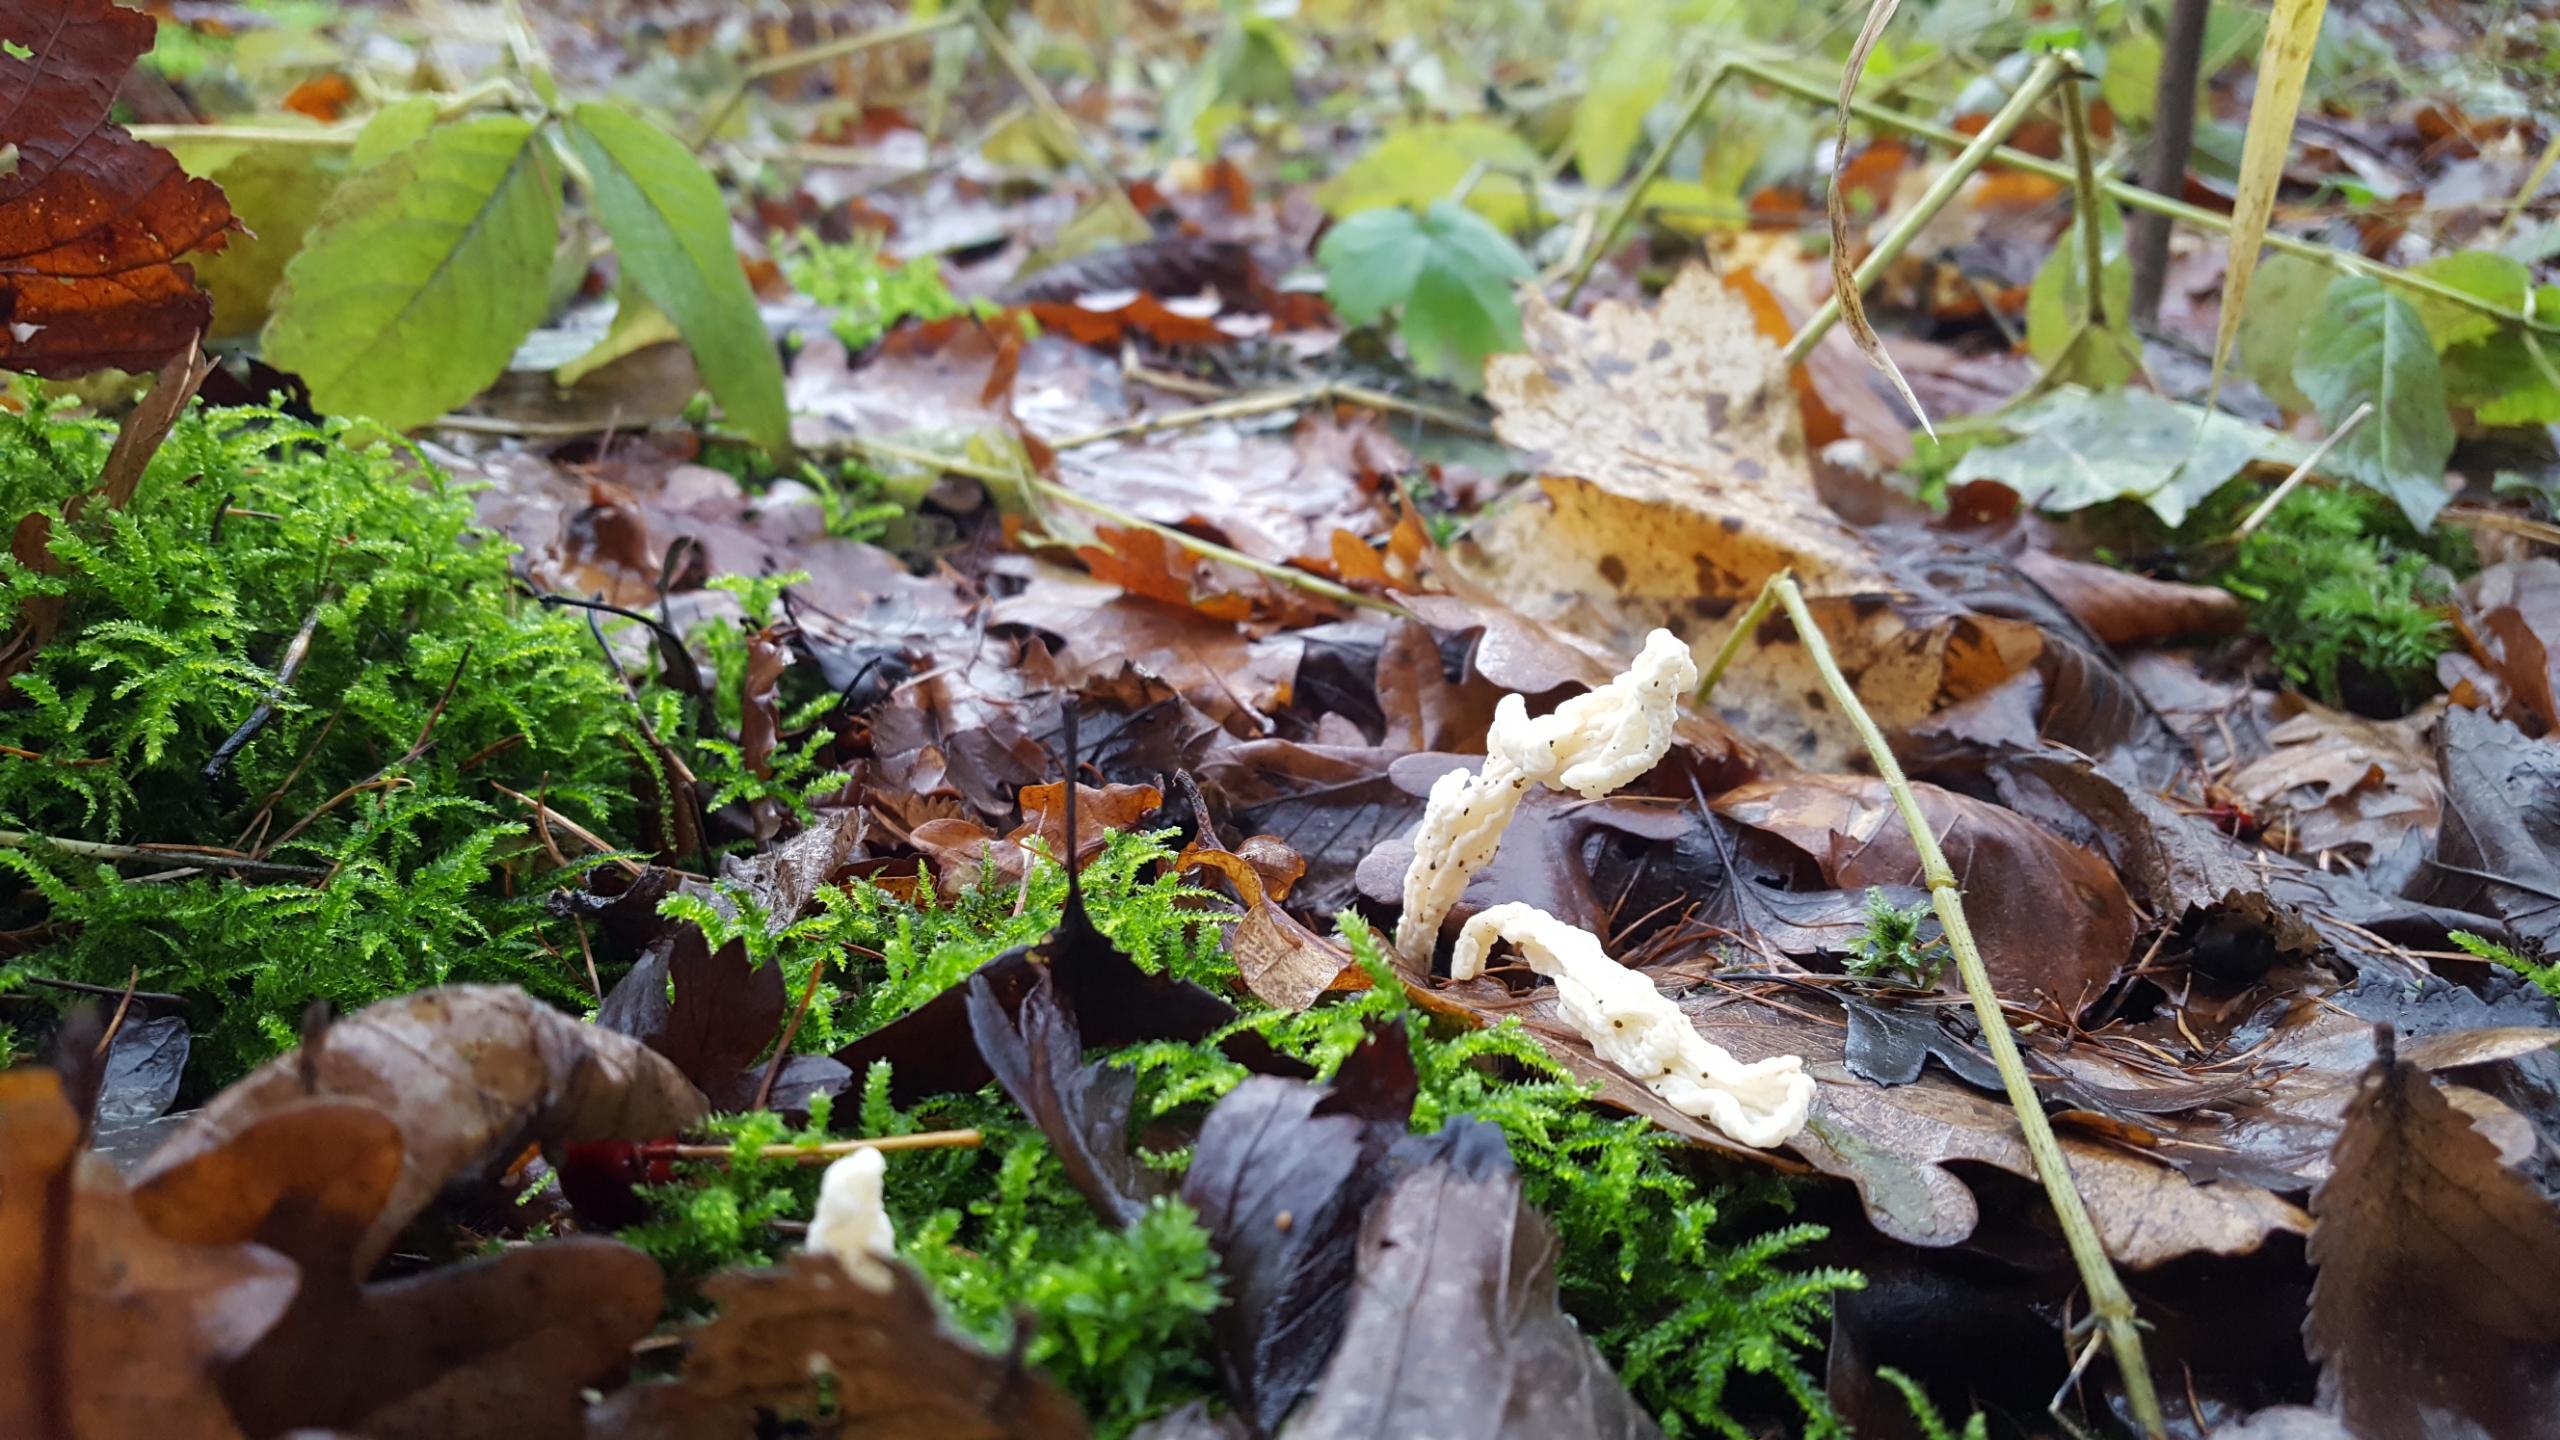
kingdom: Fungi
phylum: Basidiomycota
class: Agaricomycetes
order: Cantharellales
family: Hydnaceae
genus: Clavulina
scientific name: Clavulina rugosa
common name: Rynket troldkølle
